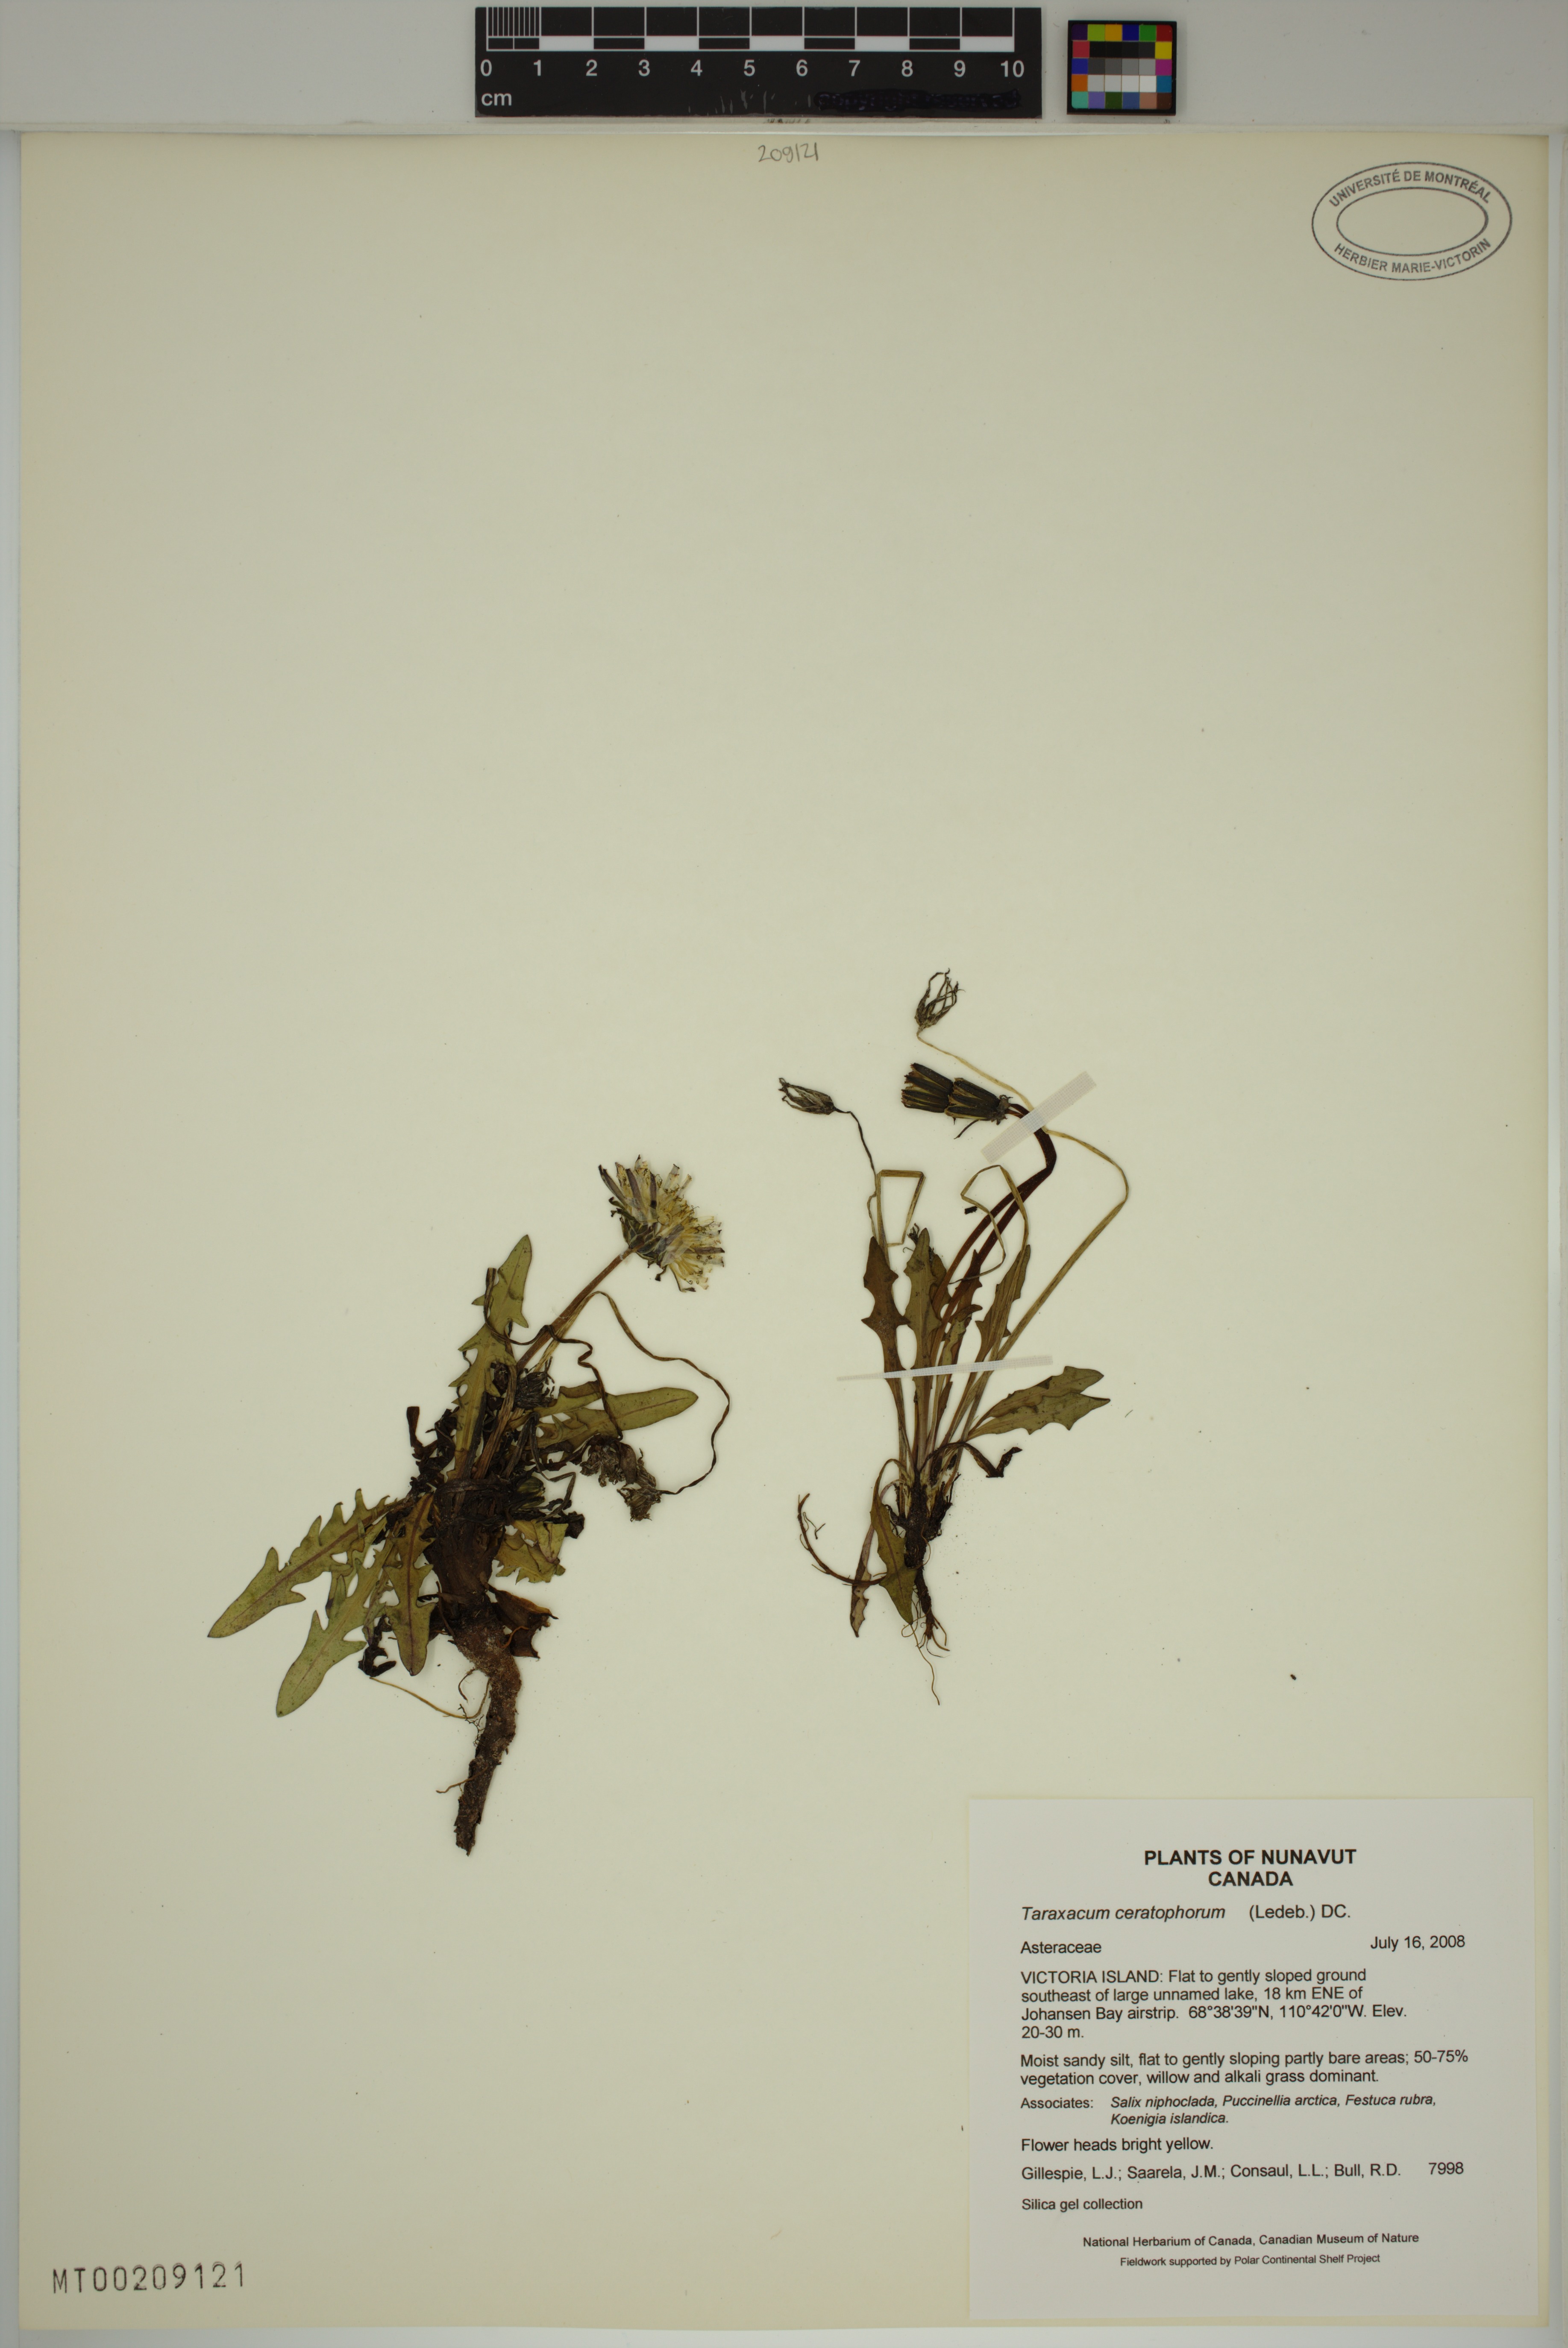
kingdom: Plantae
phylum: Tracheophyta
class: Magnoliopsida
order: Asterales
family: Asteraceae
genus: Taraxacum
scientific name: Taraxacum ceratophorum
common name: Horn-bearing dandelion
